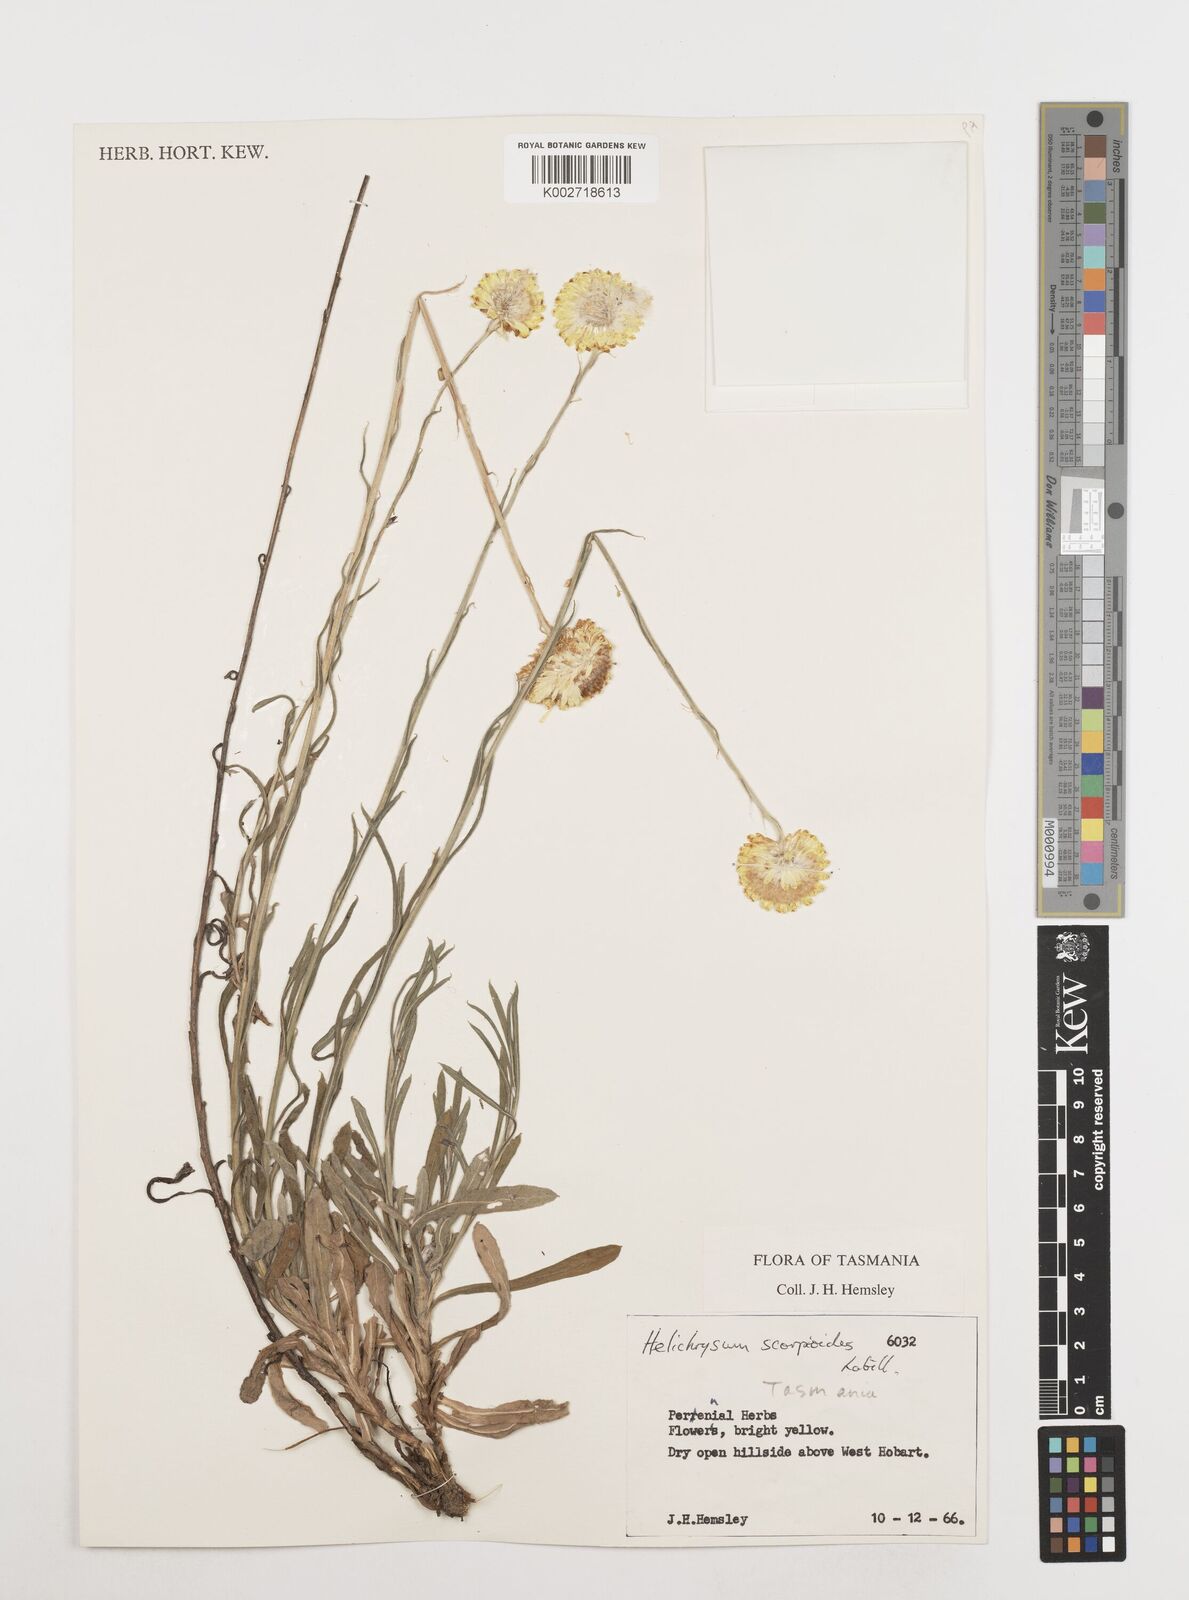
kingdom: Plantae
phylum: Tracheophyta
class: Magnoliopsida
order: Asterales
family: Asteraceae
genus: Coronidium
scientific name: Coronidium scorpioides
